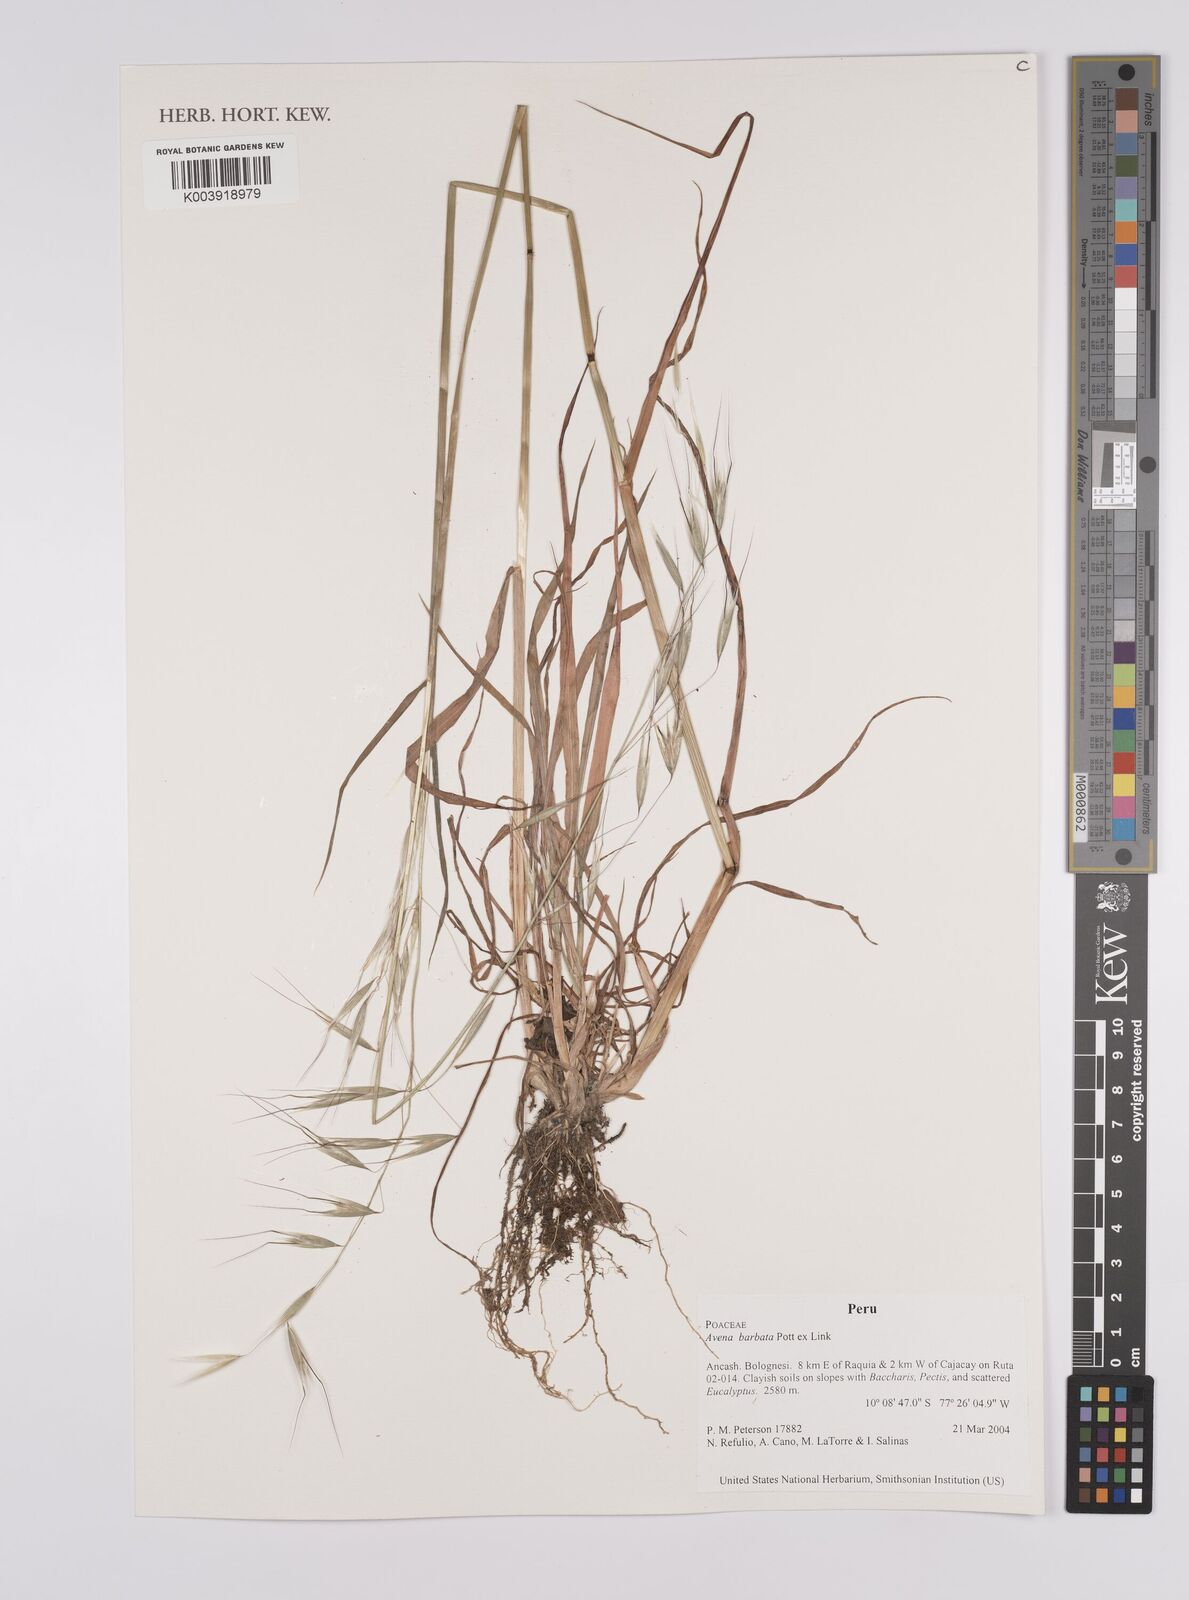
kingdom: Plantae
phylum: Tracheophyta
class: Liliopsida
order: Poales
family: Poaceae
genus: Avena
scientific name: Avena barbata
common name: Slender oat
